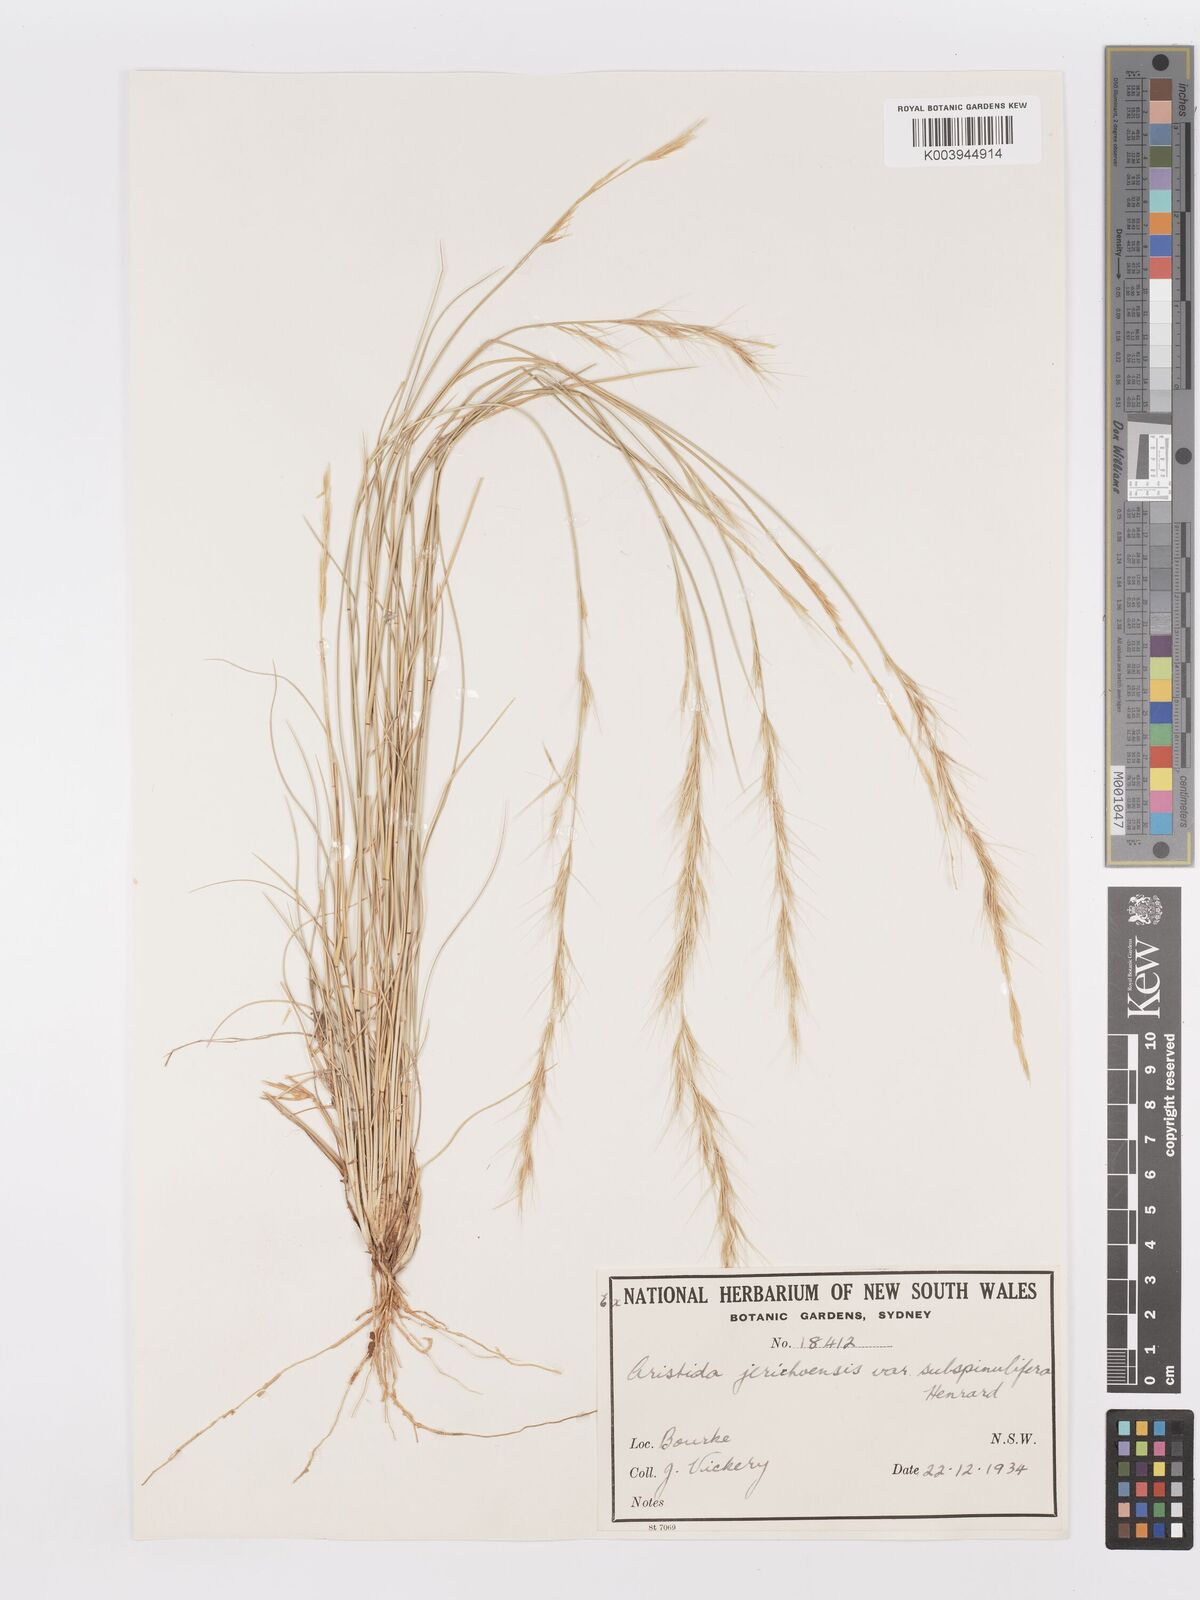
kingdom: Plantae
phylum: Tracheophyta
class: Liliopsida
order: Poales
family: Poaceae
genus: Aristida
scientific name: Aristida jerichoensis
